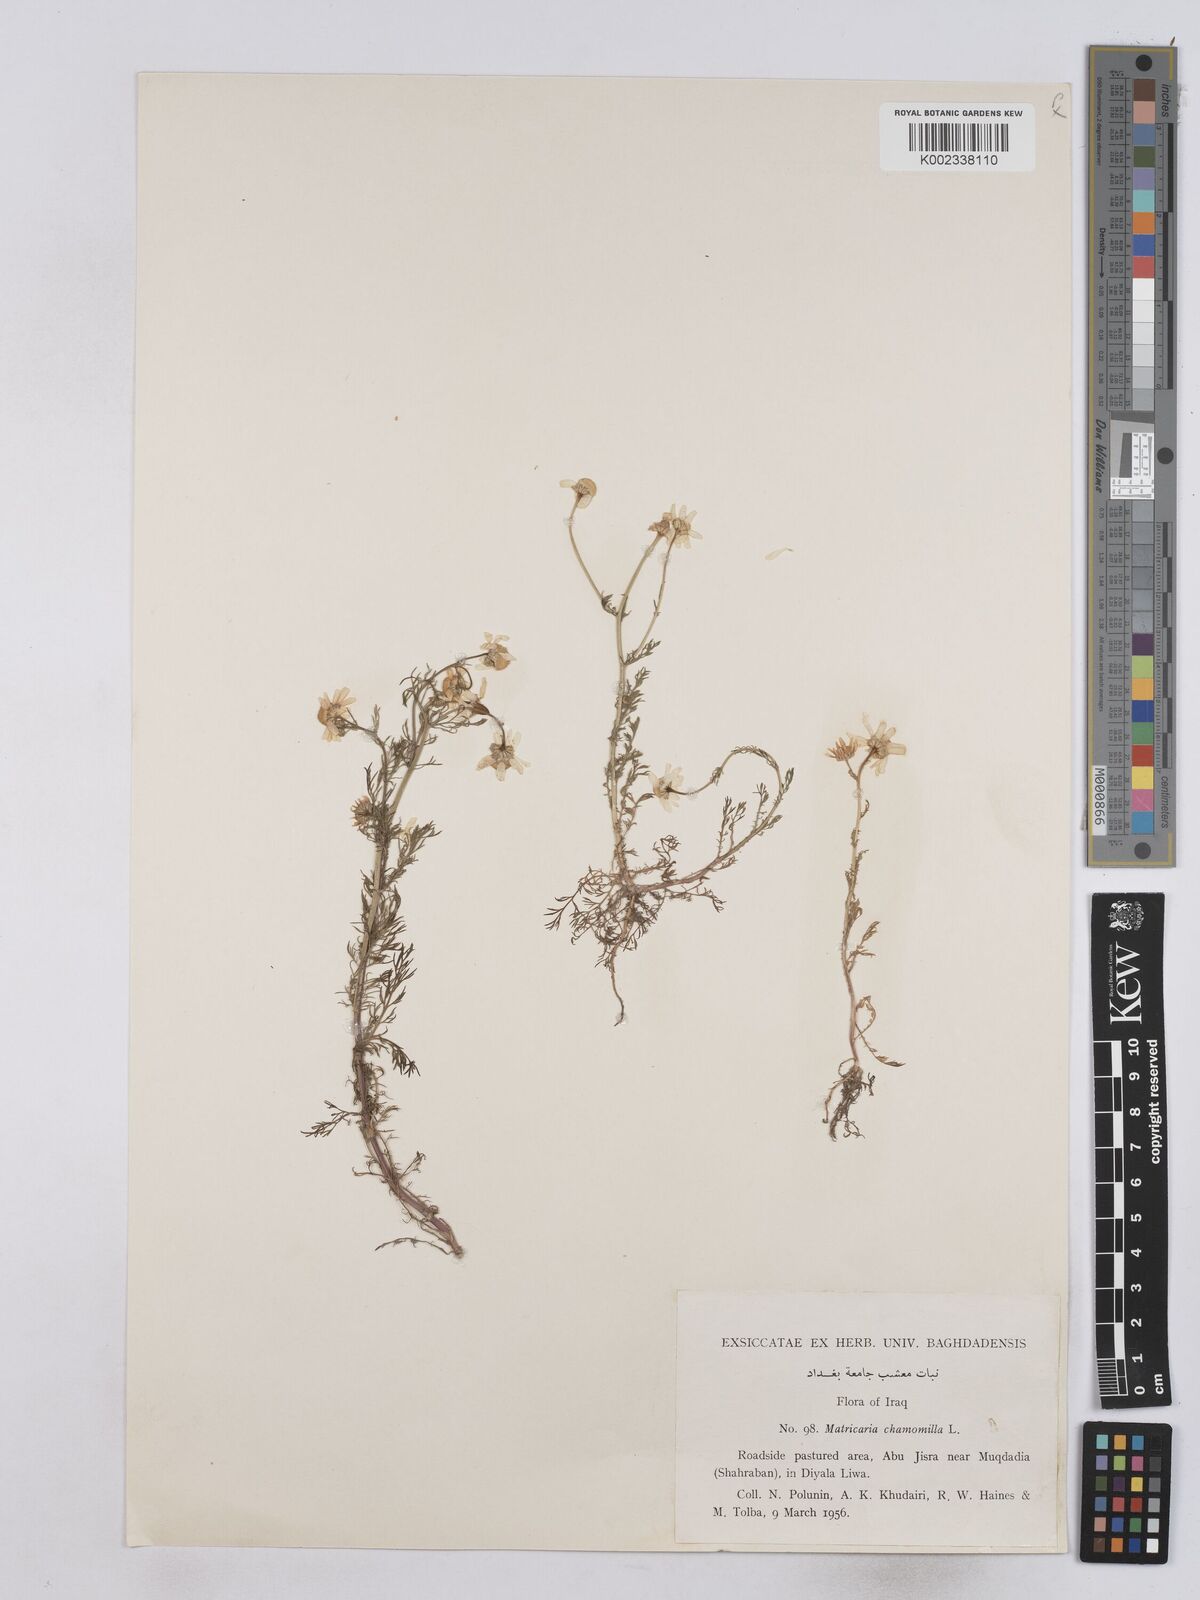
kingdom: Plantae
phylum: Tracheophyta
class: Magnoliopsida
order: Asterales
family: Asteraceae
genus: Matricaria
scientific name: Matricaria chamomilla
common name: Scented mayweed
